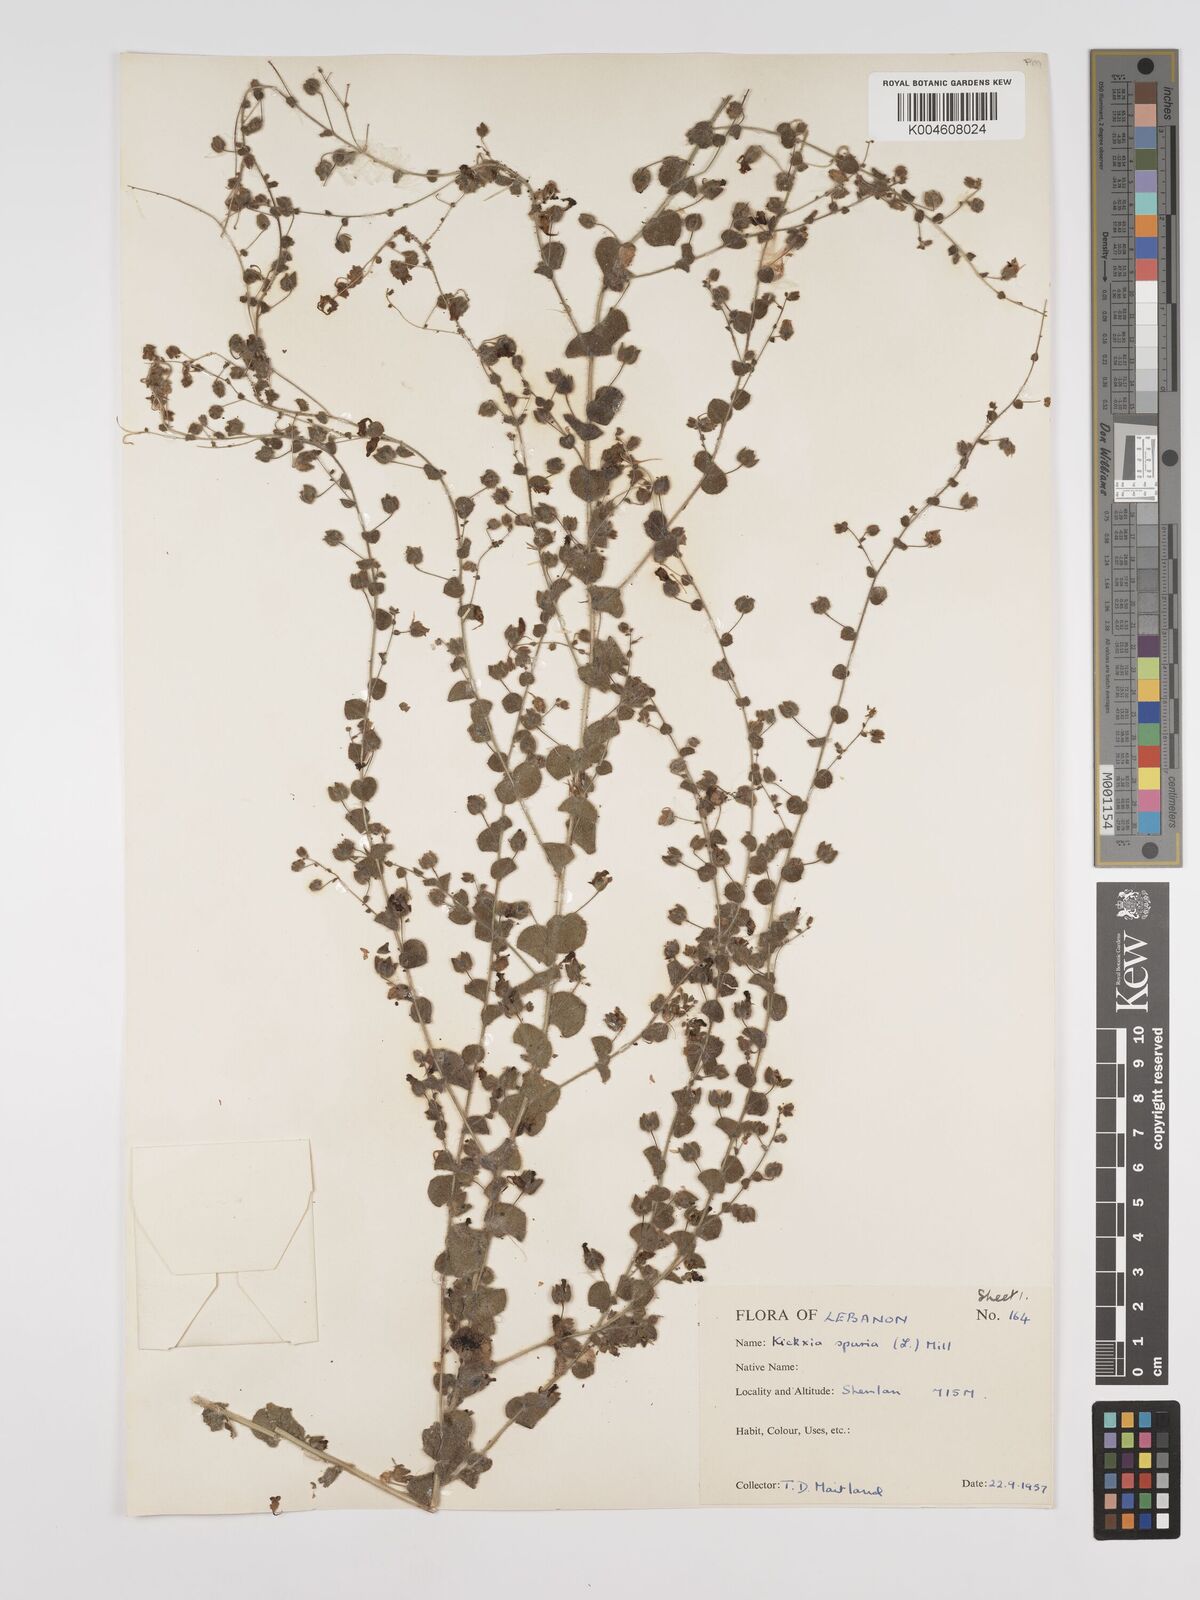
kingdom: Plantae
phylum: Tracheophyta
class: Magnoliopsida
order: Lamiales
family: Plantaginaceae
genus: Kickxia
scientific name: Kickxia spuria
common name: Round-leaved fluellen
